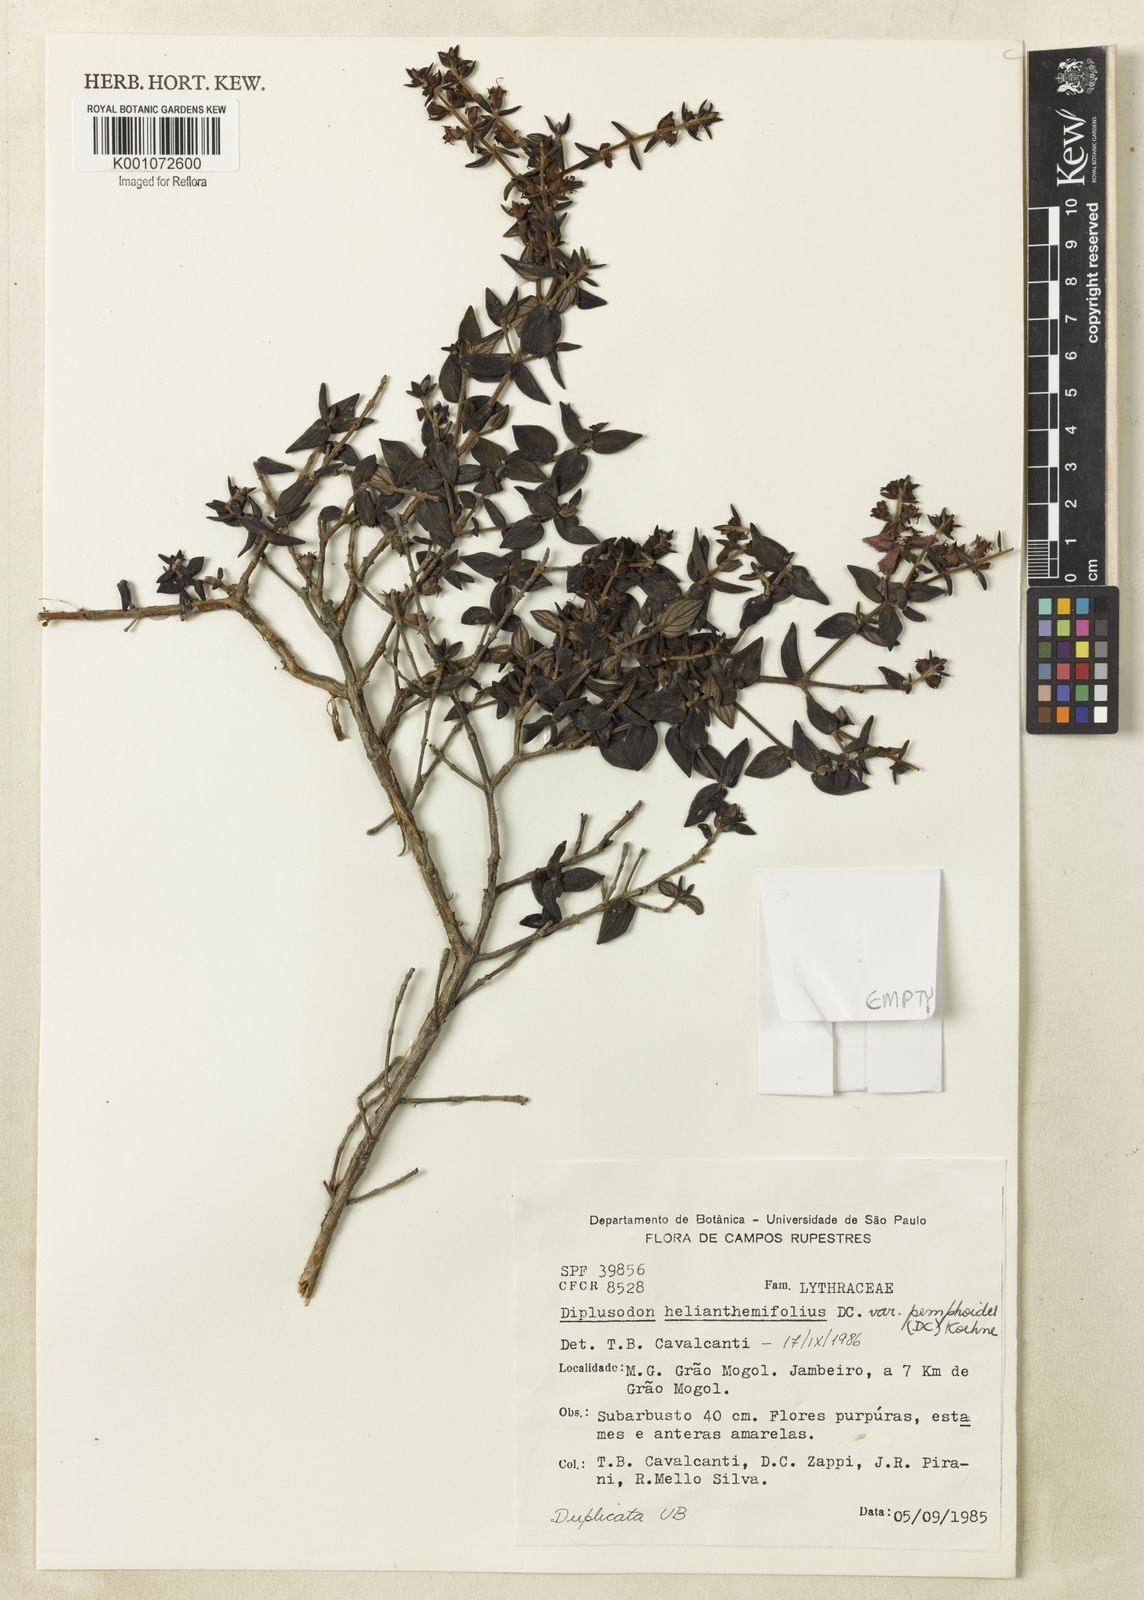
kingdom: Plantae
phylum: Tracheophyta
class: Magnoliopsida
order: Myrtales
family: Lythraceae
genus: Diplusodon
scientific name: Diplusodon helianthemifolius
